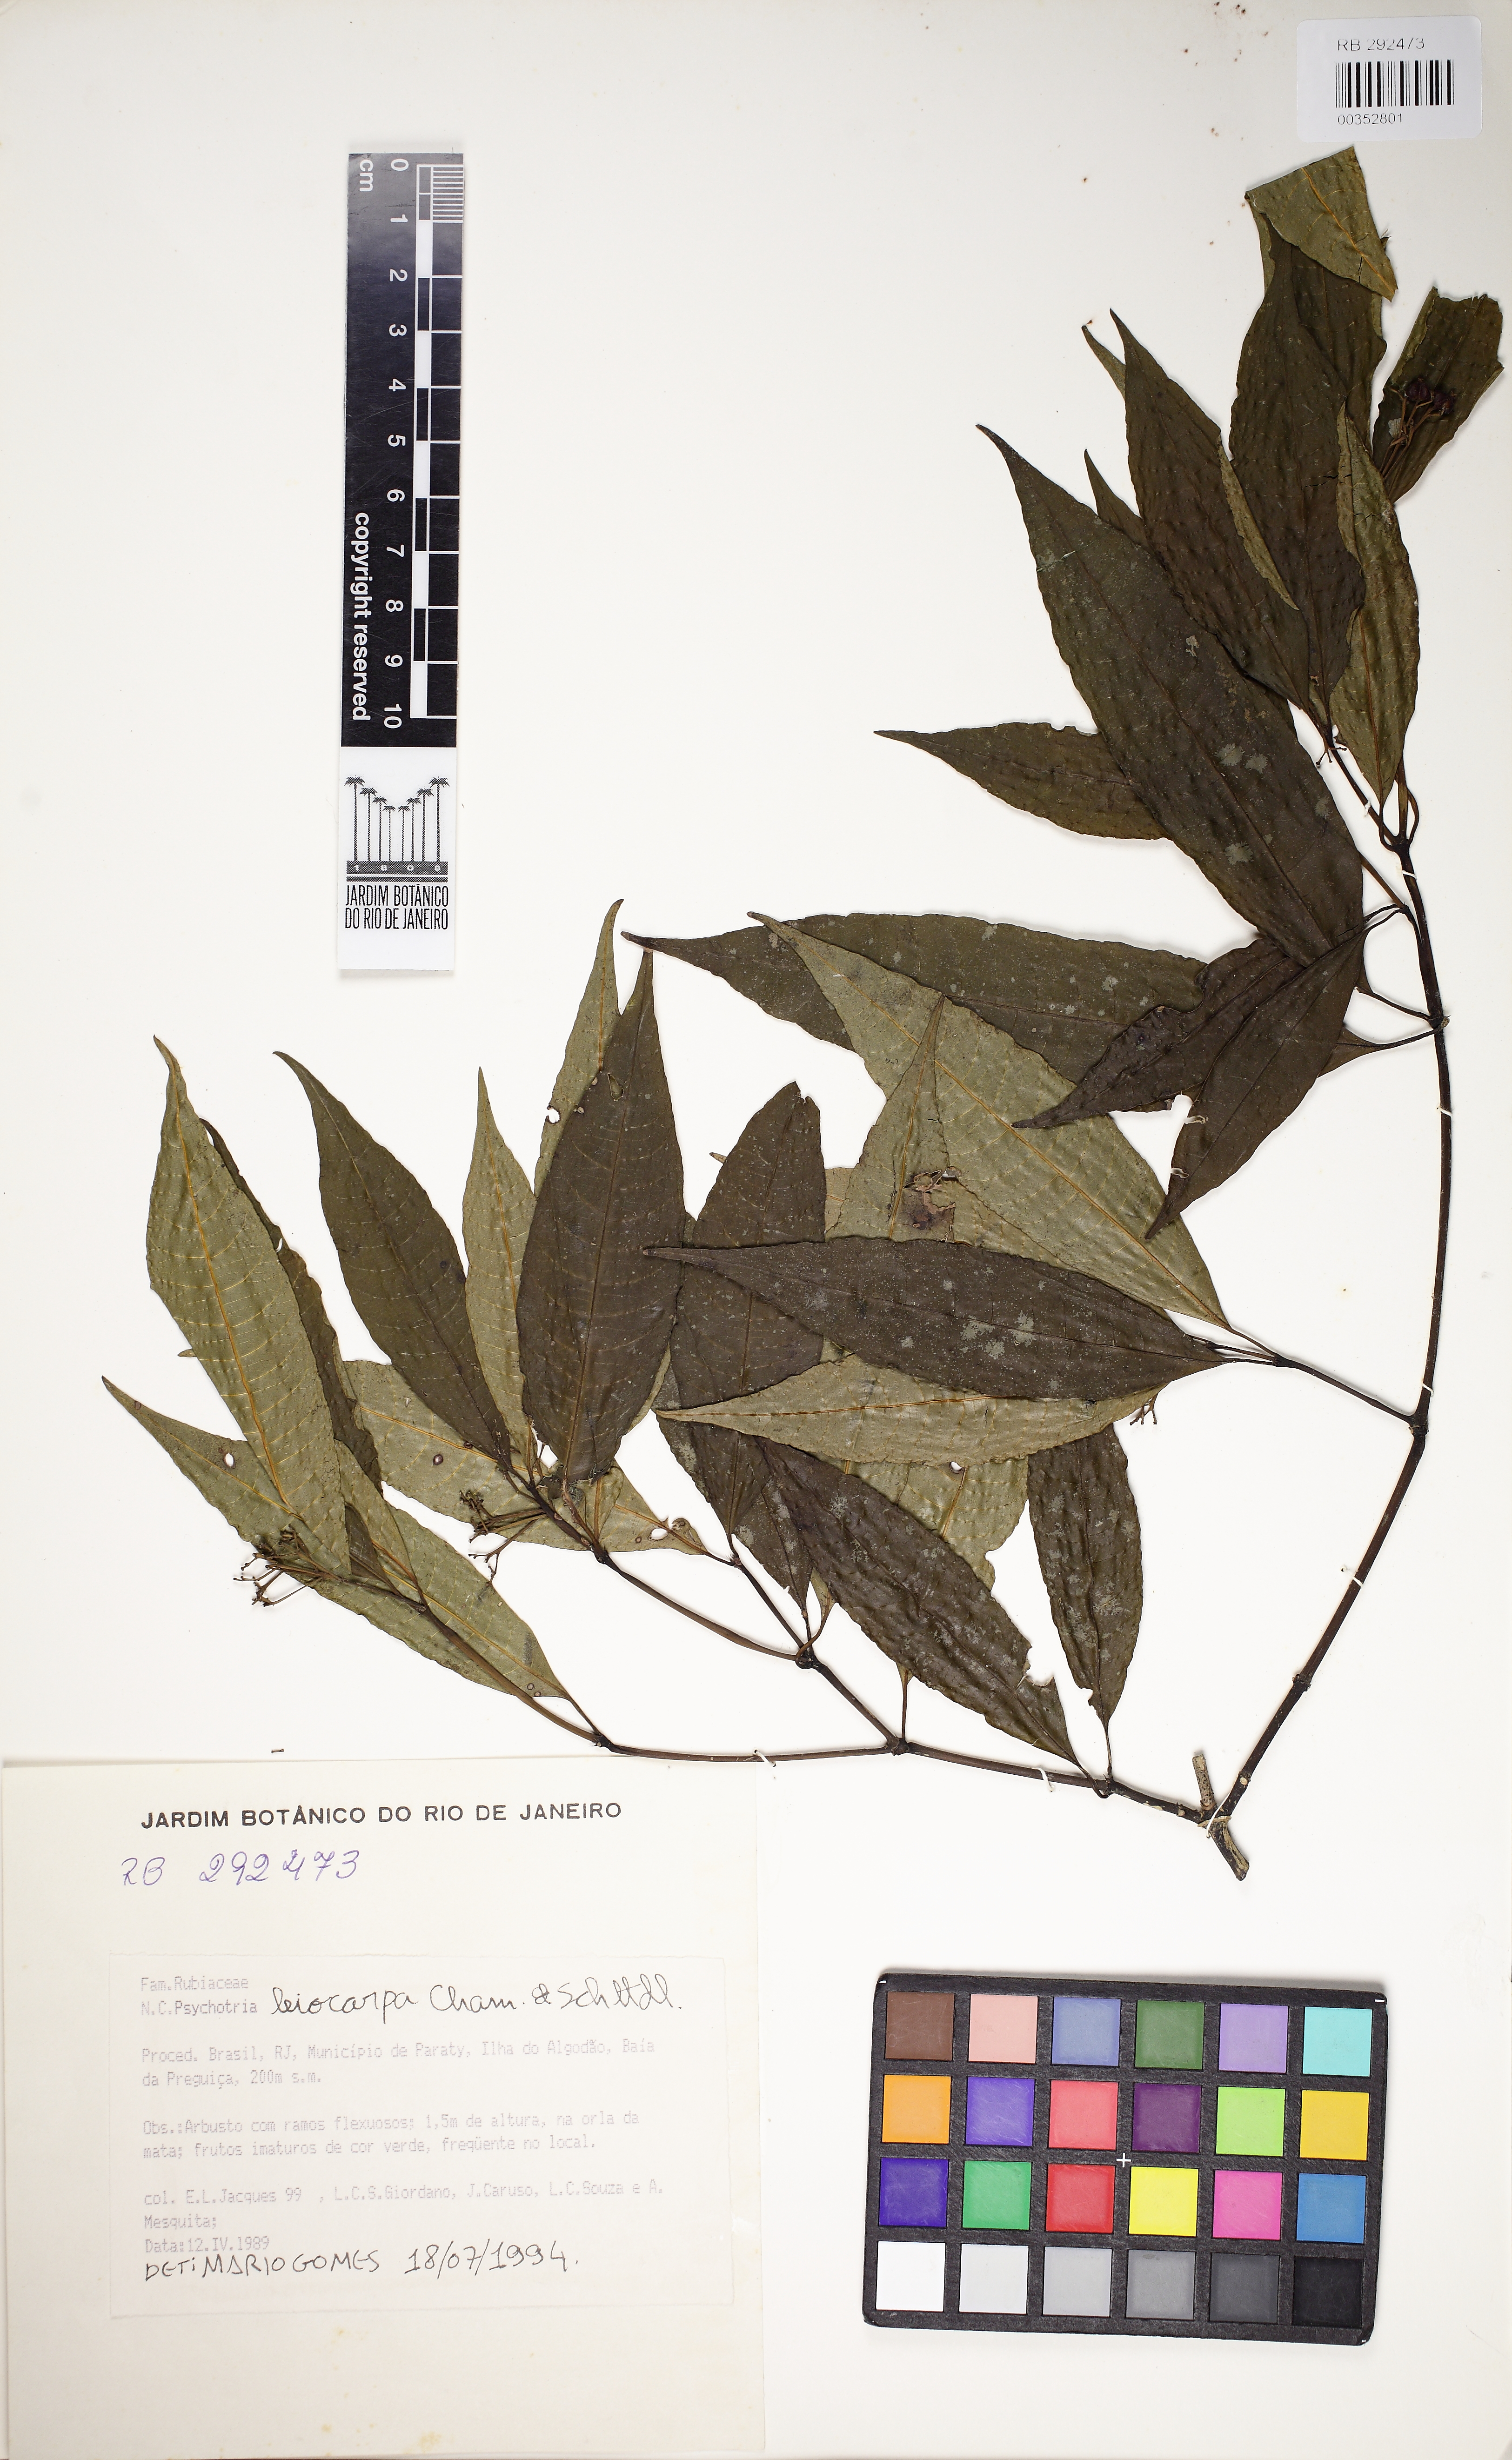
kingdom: Plantae
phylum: Tracheophyta
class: Magnoliopsida
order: Gentianales
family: Rubiaceae
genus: Psychotria
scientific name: Psychotria leiocarpa
